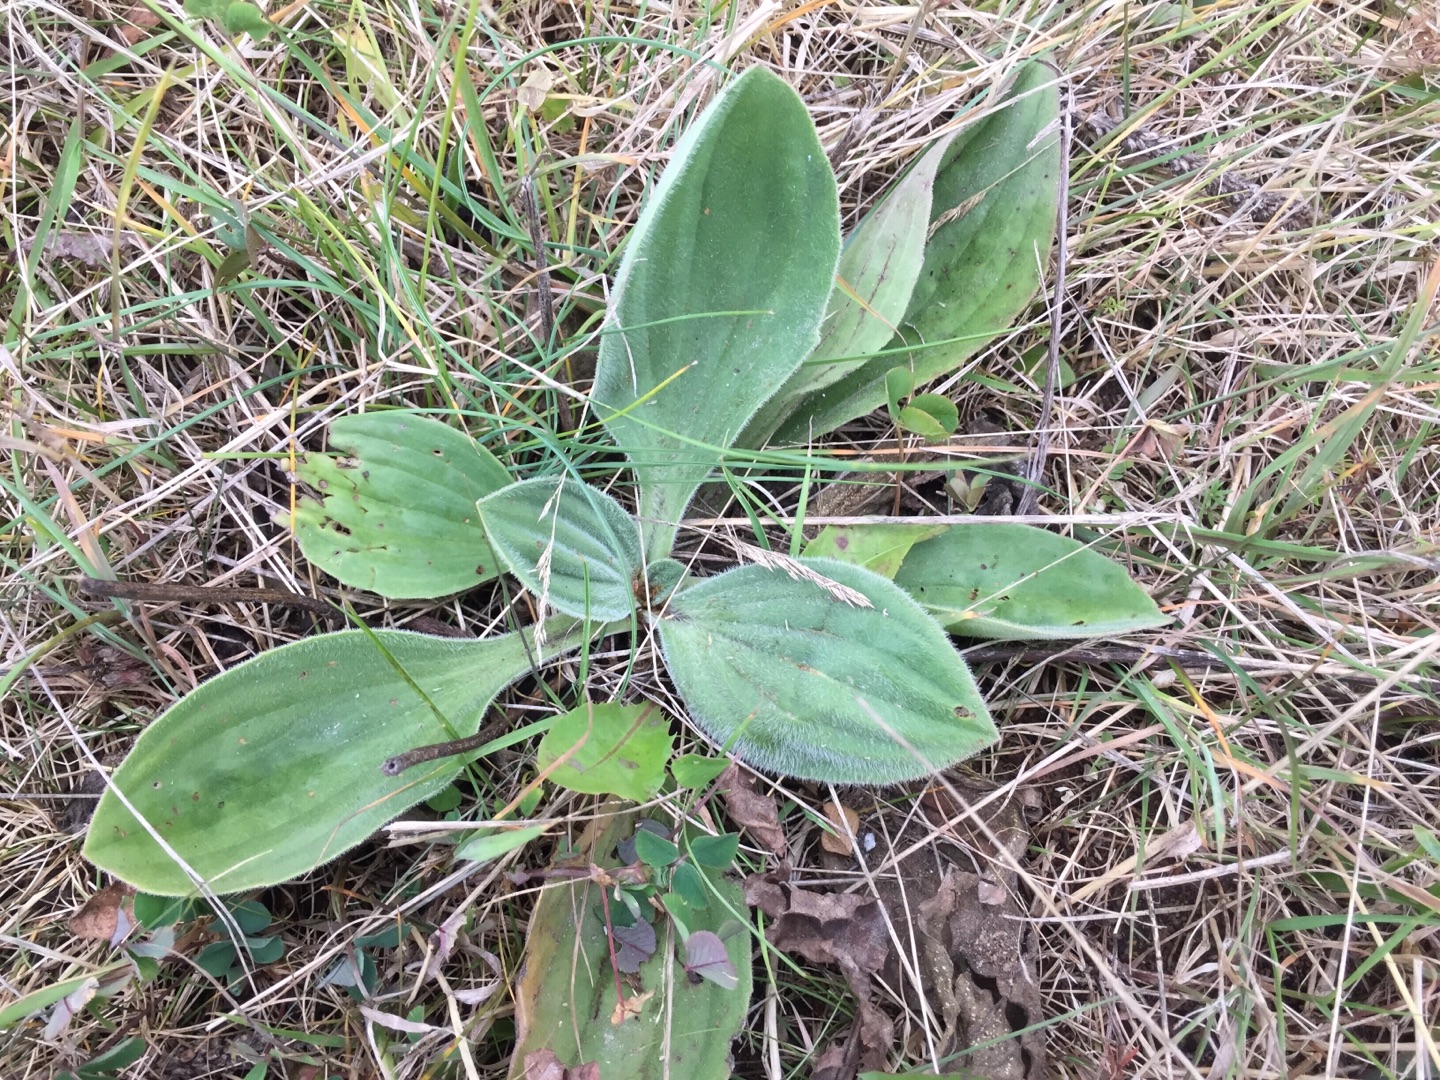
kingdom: Plantae
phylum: Tracheophyta
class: Magnoliopsida
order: Lamiales
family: Plantaginaceae
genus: Plantago
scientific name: Plantago media
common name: Dunet vejbred
